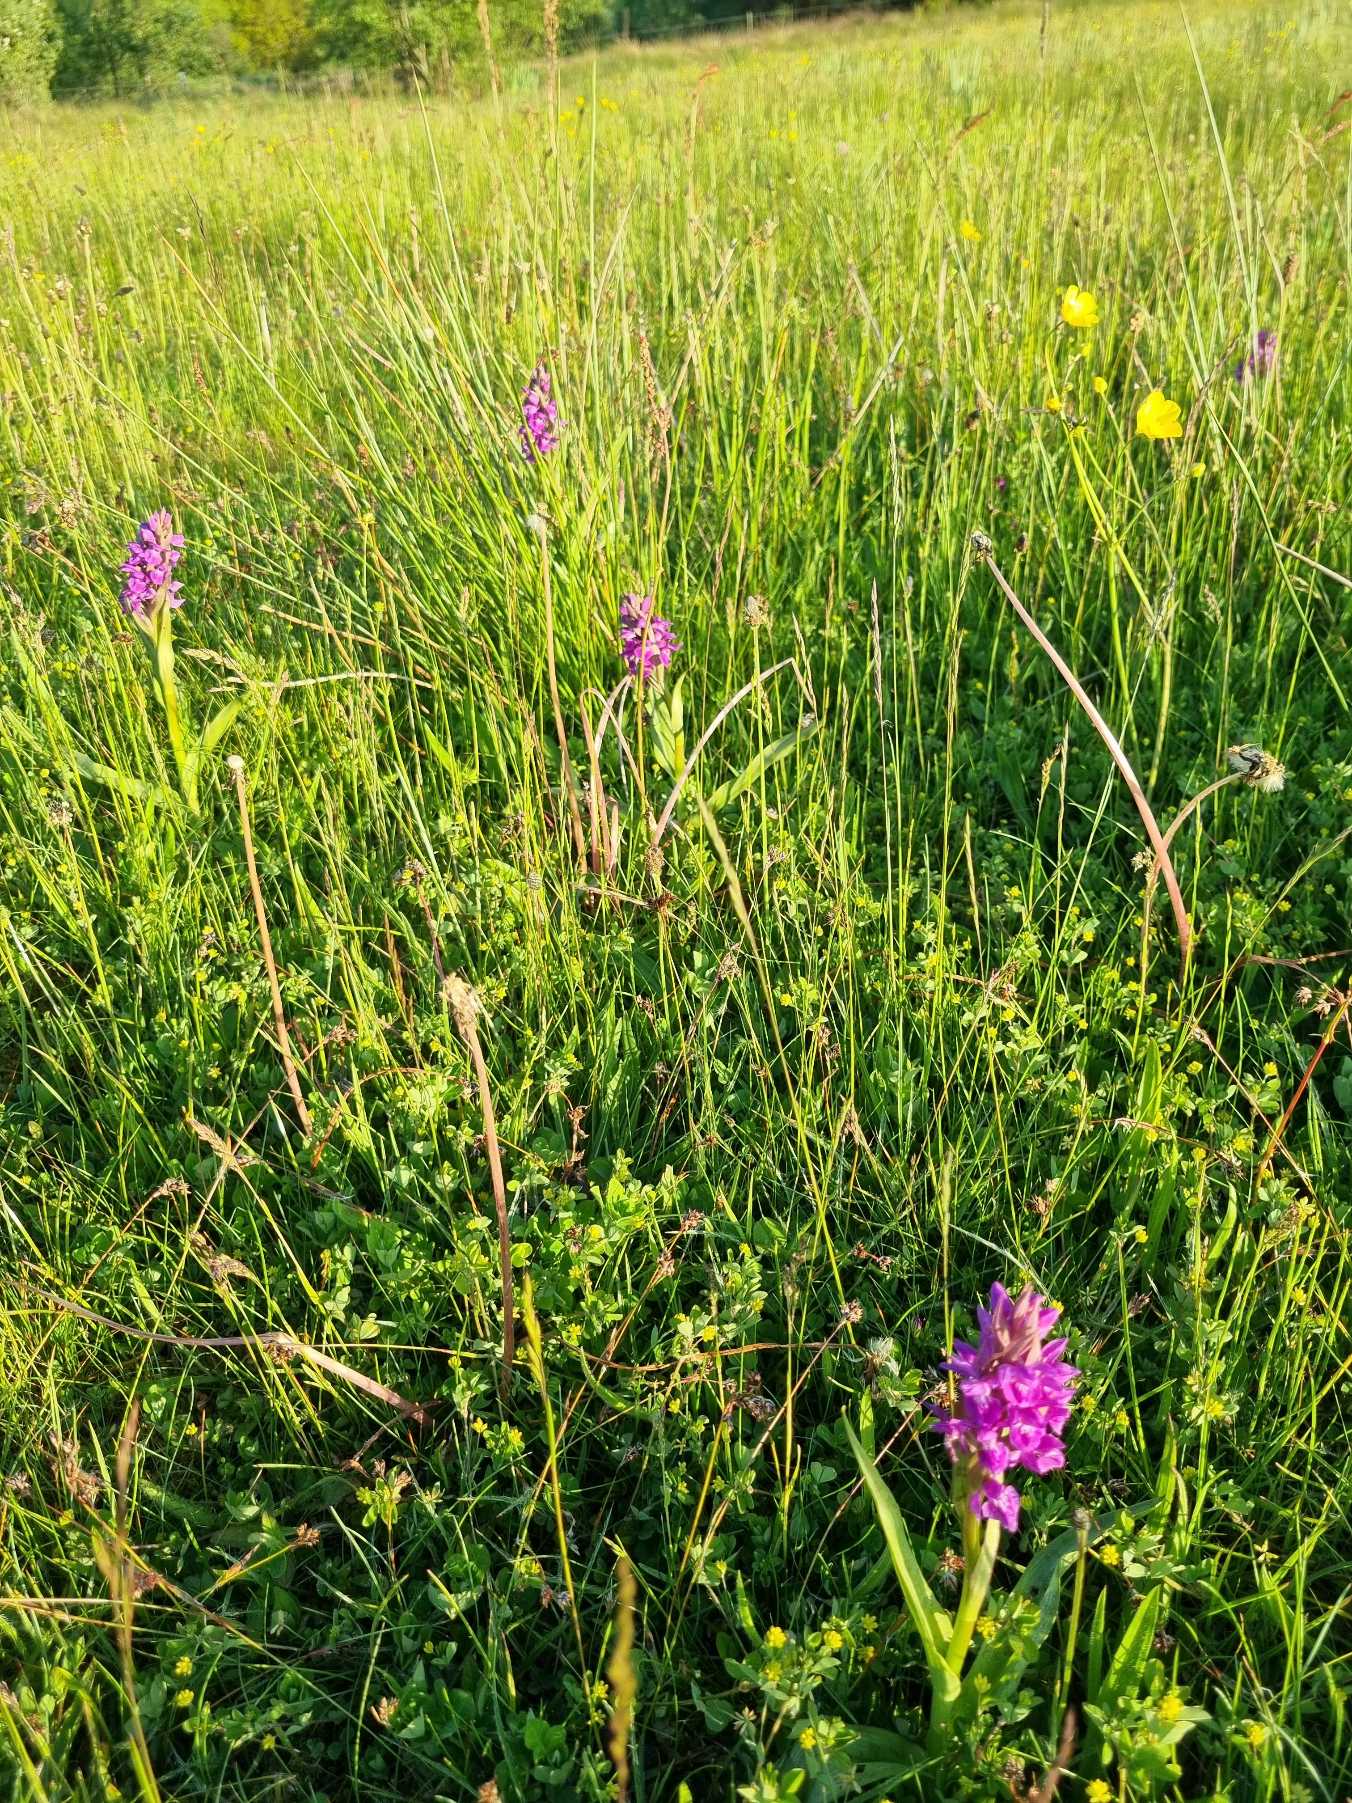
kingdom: Plantae
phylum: Tracheophyta
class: Liliopsida
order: Asparagales
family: Orchidaceae
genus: Dactylorhiza
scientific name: Dactylorhiza majalis
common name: Maj-gøgeurt
